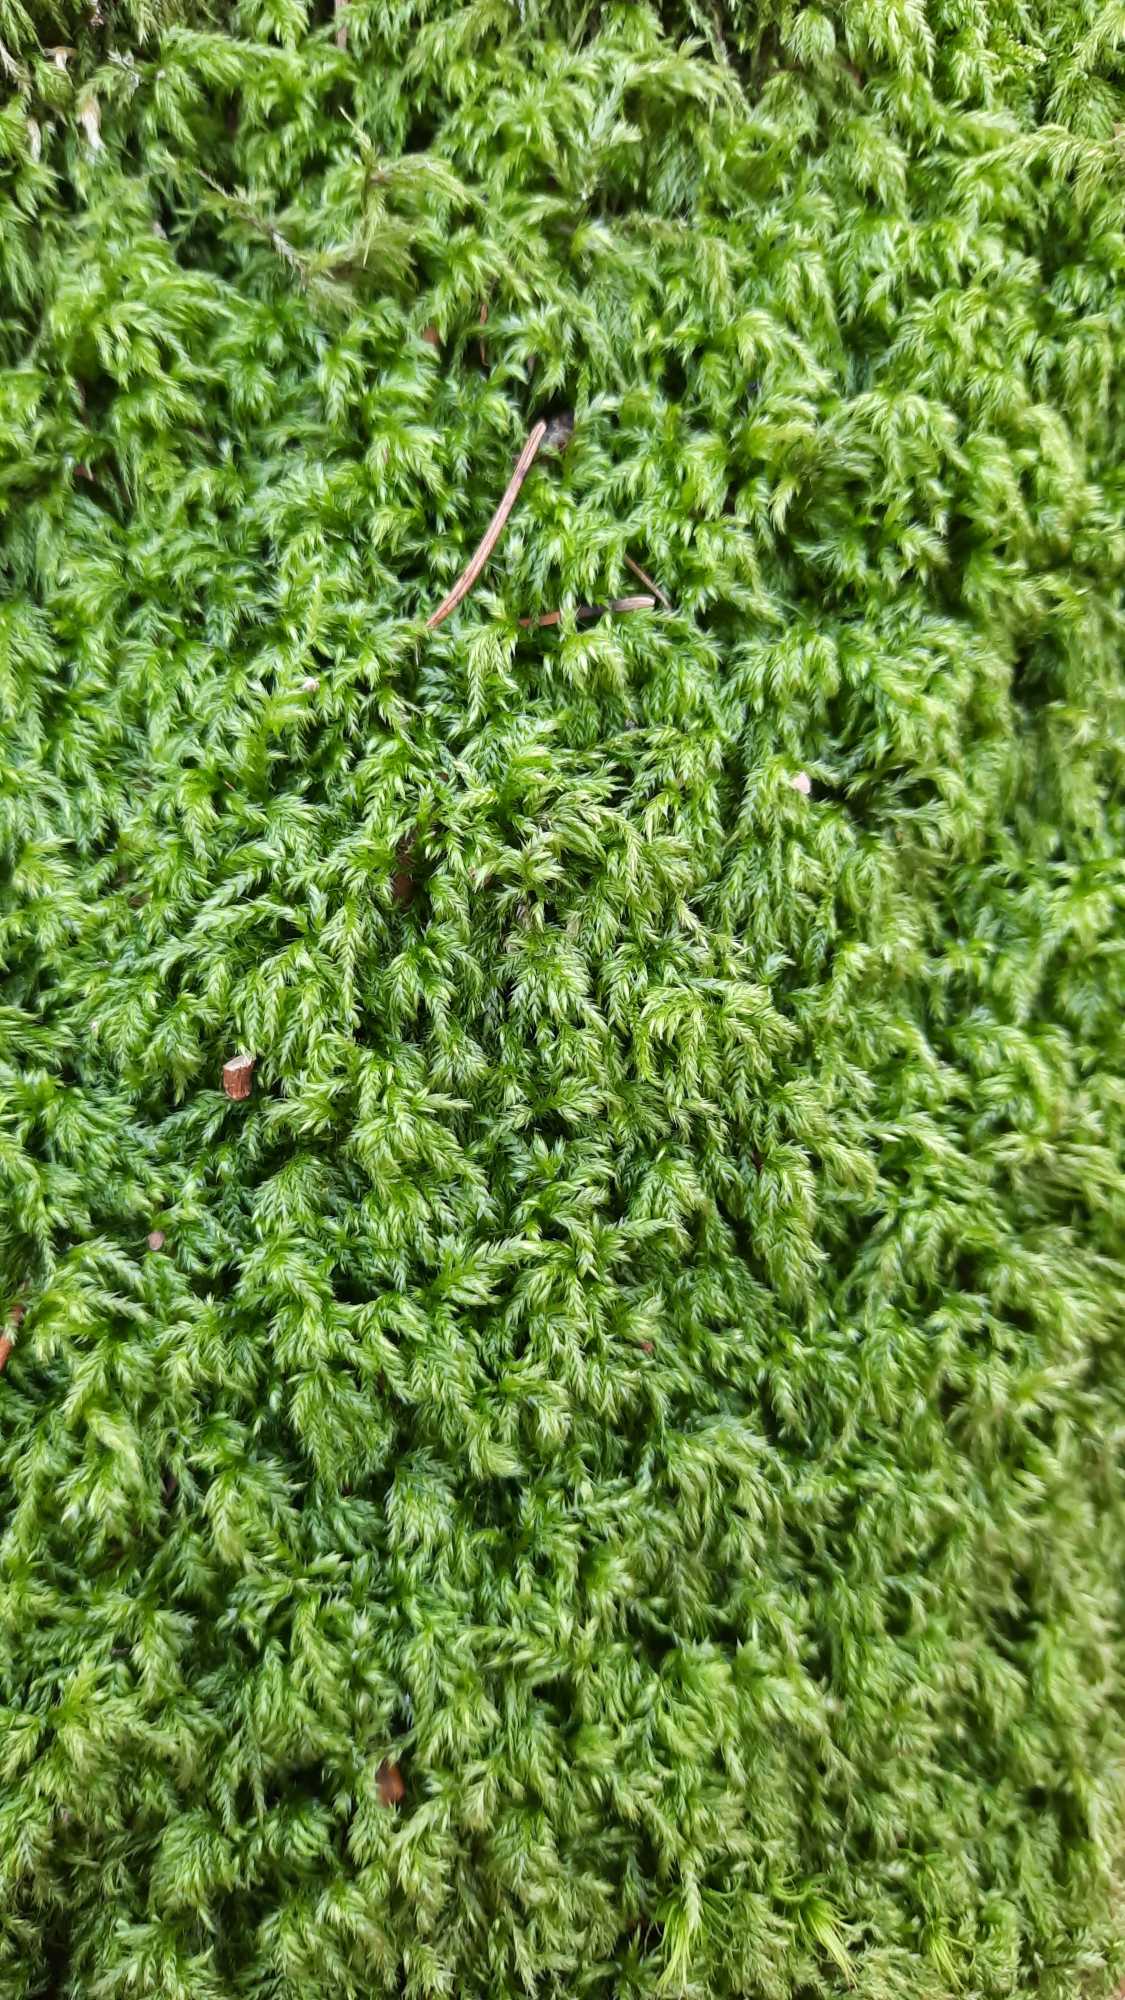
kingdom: Plantae
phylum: Bryophyta
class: Bryopsida
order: Hypnales
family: Lembophyllaceae
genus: Pseudisothecium
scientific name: Pseudisothecium myosuroides
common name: Slank stammemos
